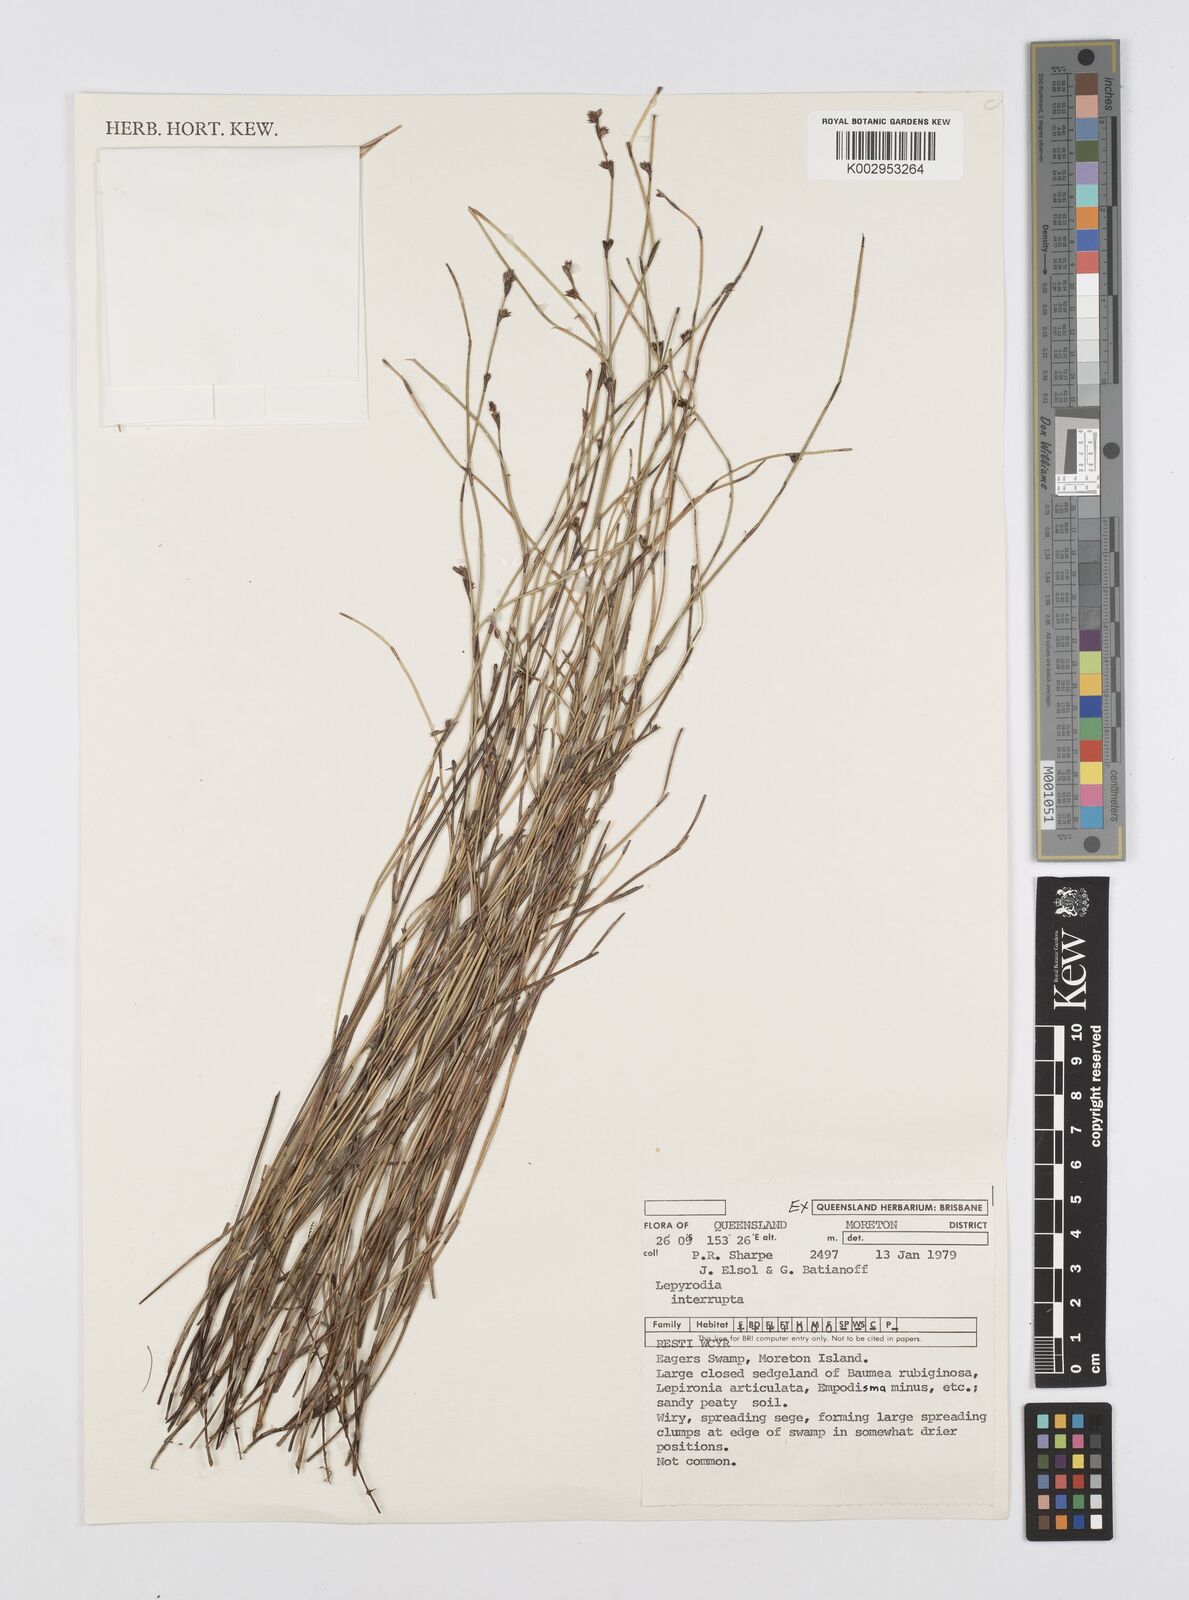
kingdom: Plantae
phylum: Tracheophyta
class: Liliopsida
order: Poales
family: Restionaceae
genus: Sporadanthus
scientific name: Sporadanthus interruptus
